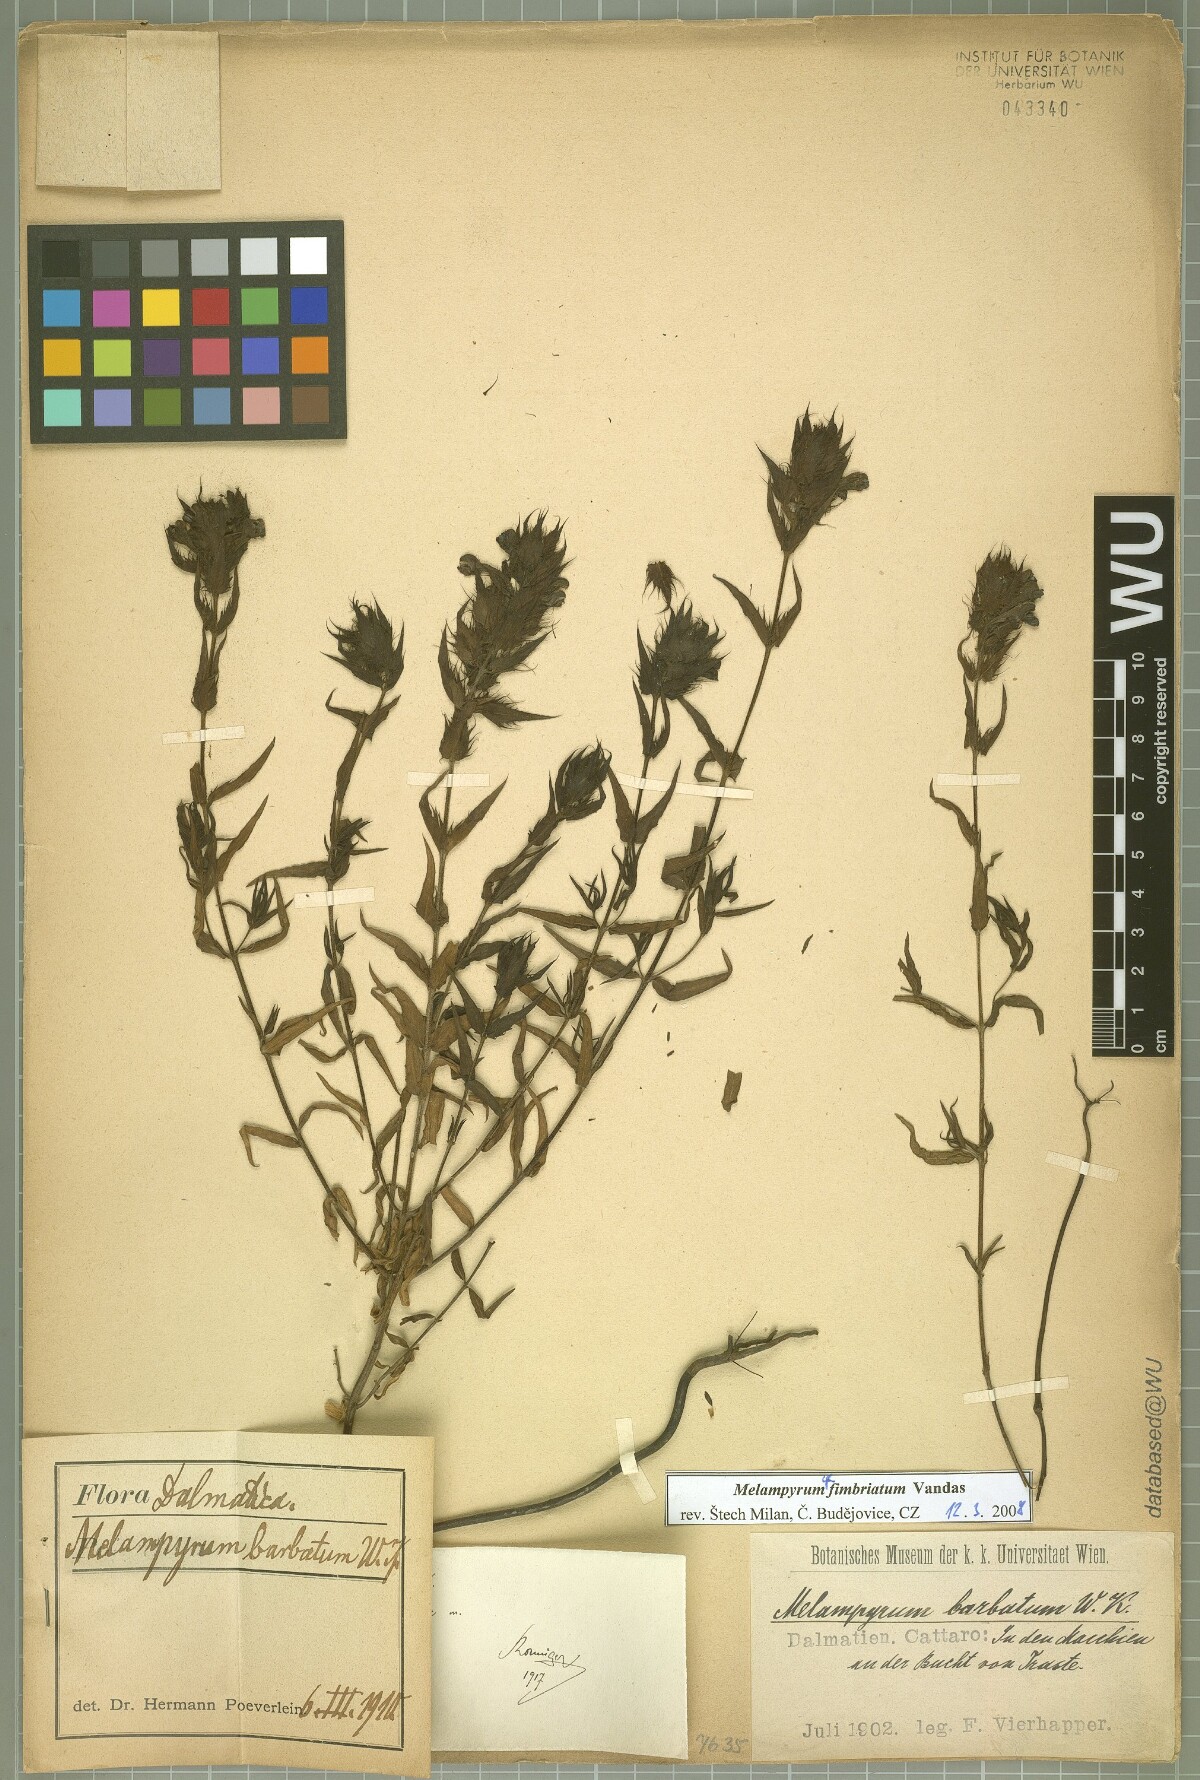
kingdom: Plantae
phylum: Tracheophyta
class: Magnoliopsida
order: Lamiales
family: Orobanchaceae
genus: Melampyrum
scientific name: Melampyrum fimbriatum
